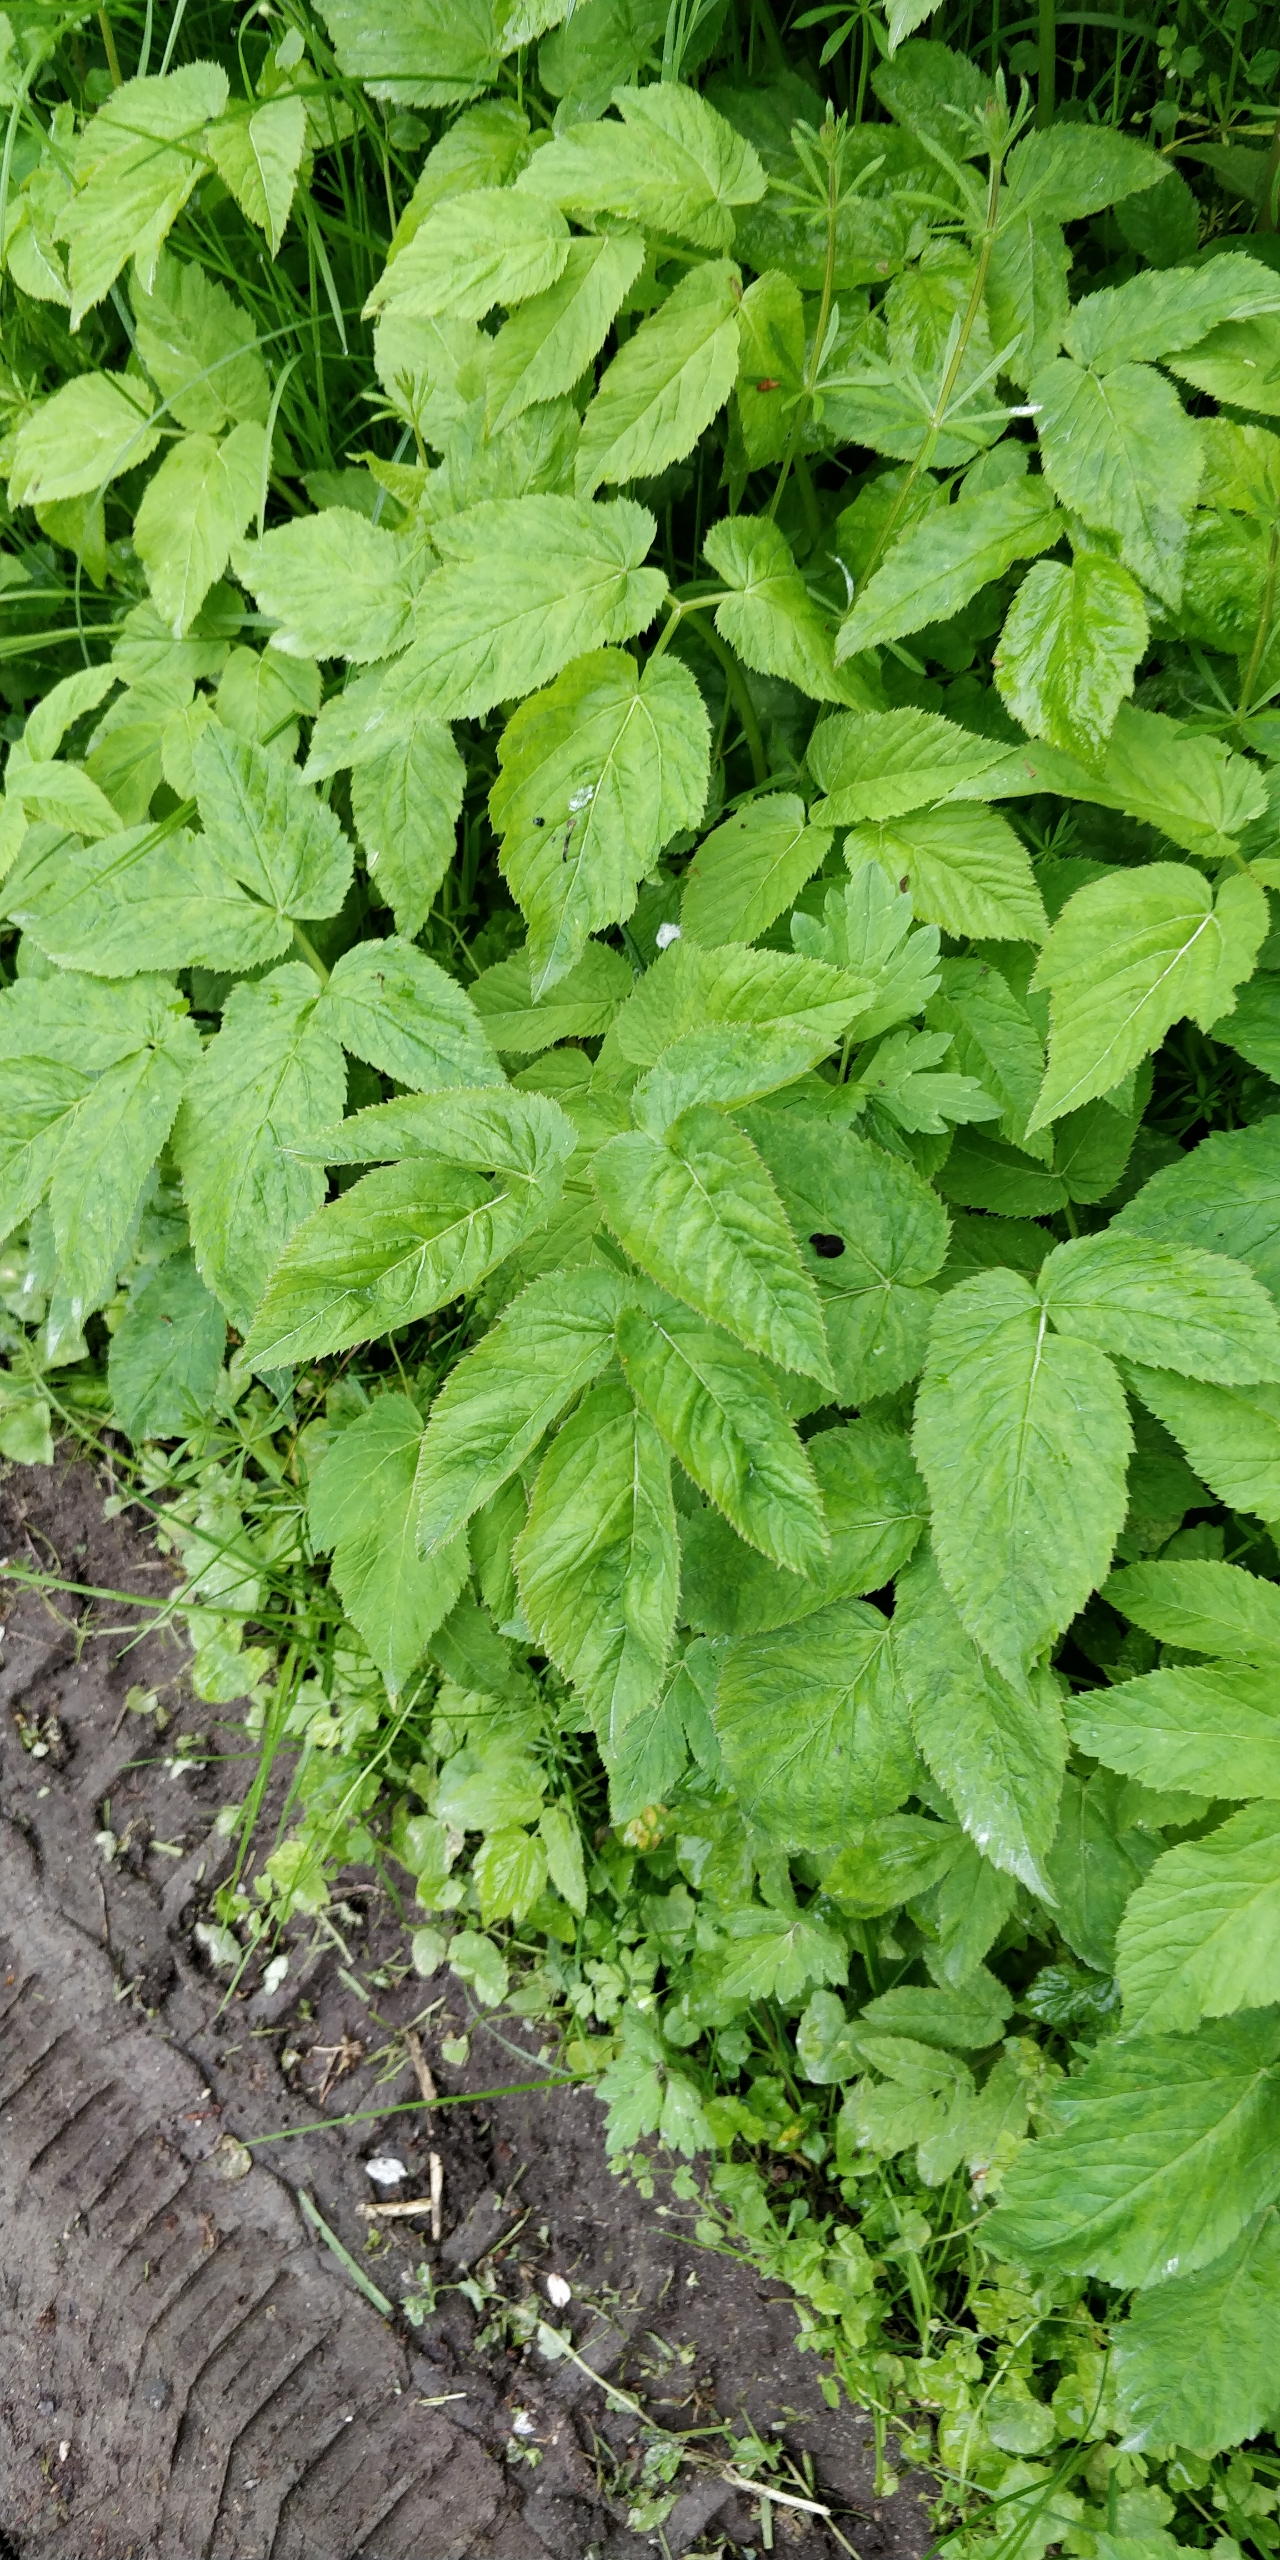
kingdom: Plantae
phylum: Tracheophyta
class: Magnoliopsida
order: Apiales
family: Apiaceae
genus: Aegopodium
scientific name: Aegopodium podagraria
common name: Skvalderkål
